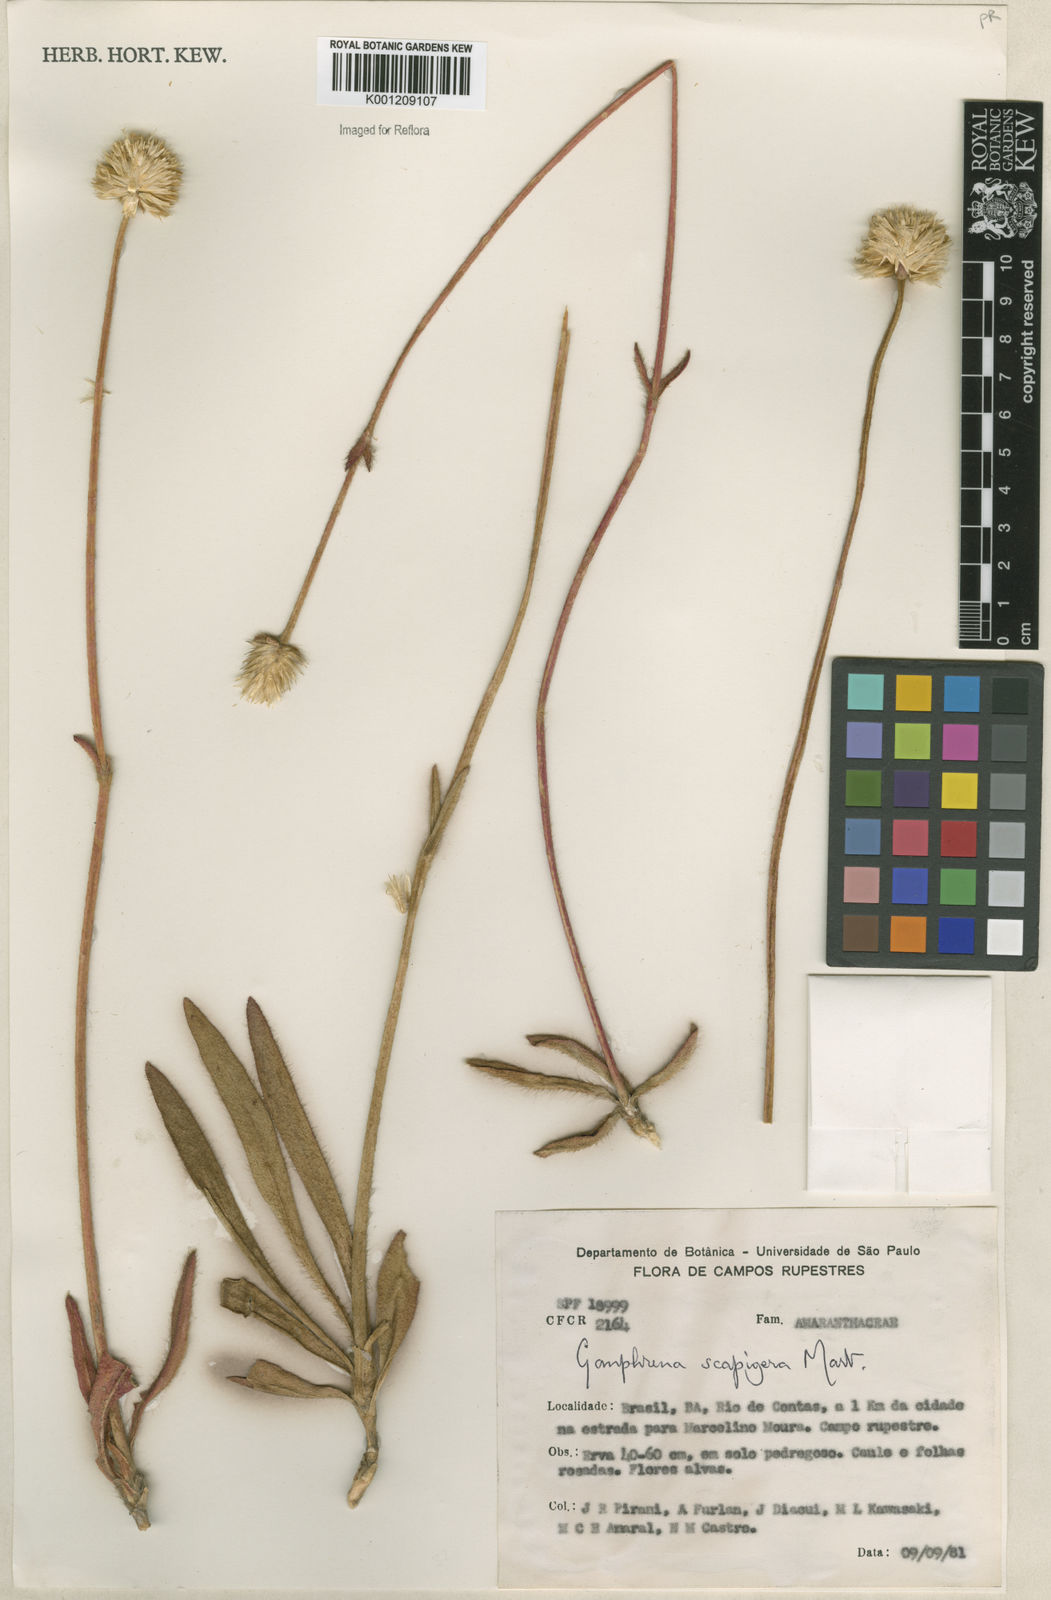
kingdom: Plantae
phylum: Tracheophyta
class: Magnoliopsida
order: Caryophyllales
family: Amaranthaceae
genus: Gomphrena
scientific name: Gomphrena scapigera
